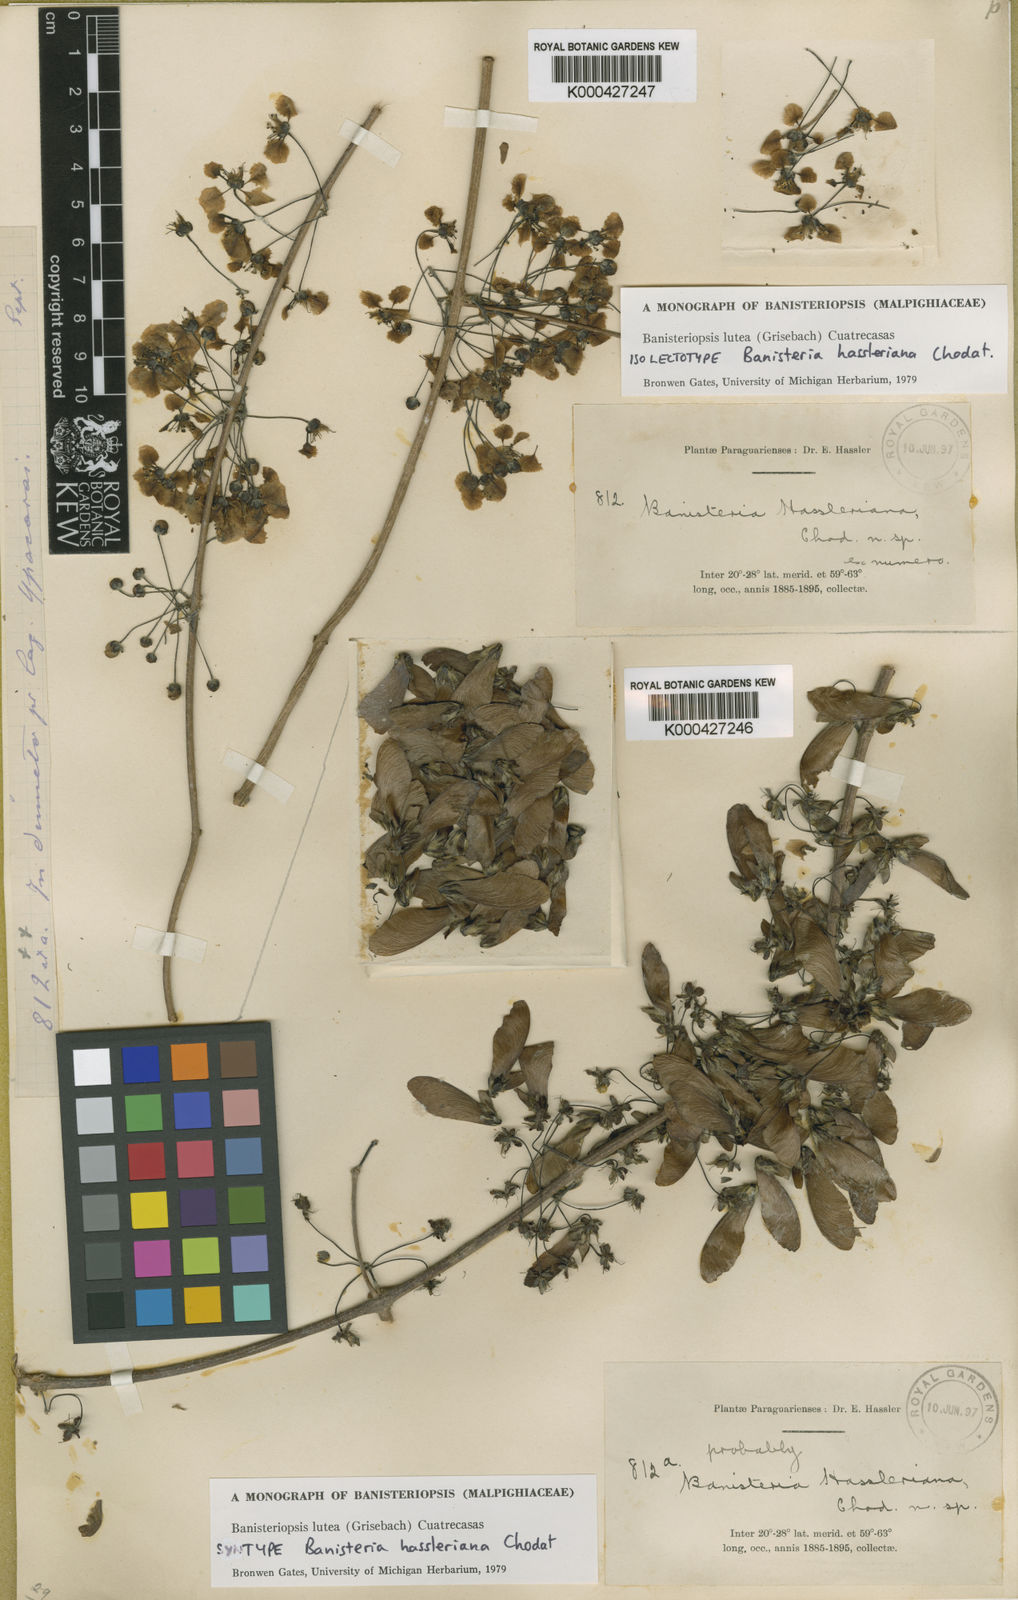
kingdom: Plantae
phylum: Tracheophyta
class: Magnoliopsida
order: Malpighiales
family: Malpighiaceae
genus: Diplopterys
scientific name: Diplopterys lutea
